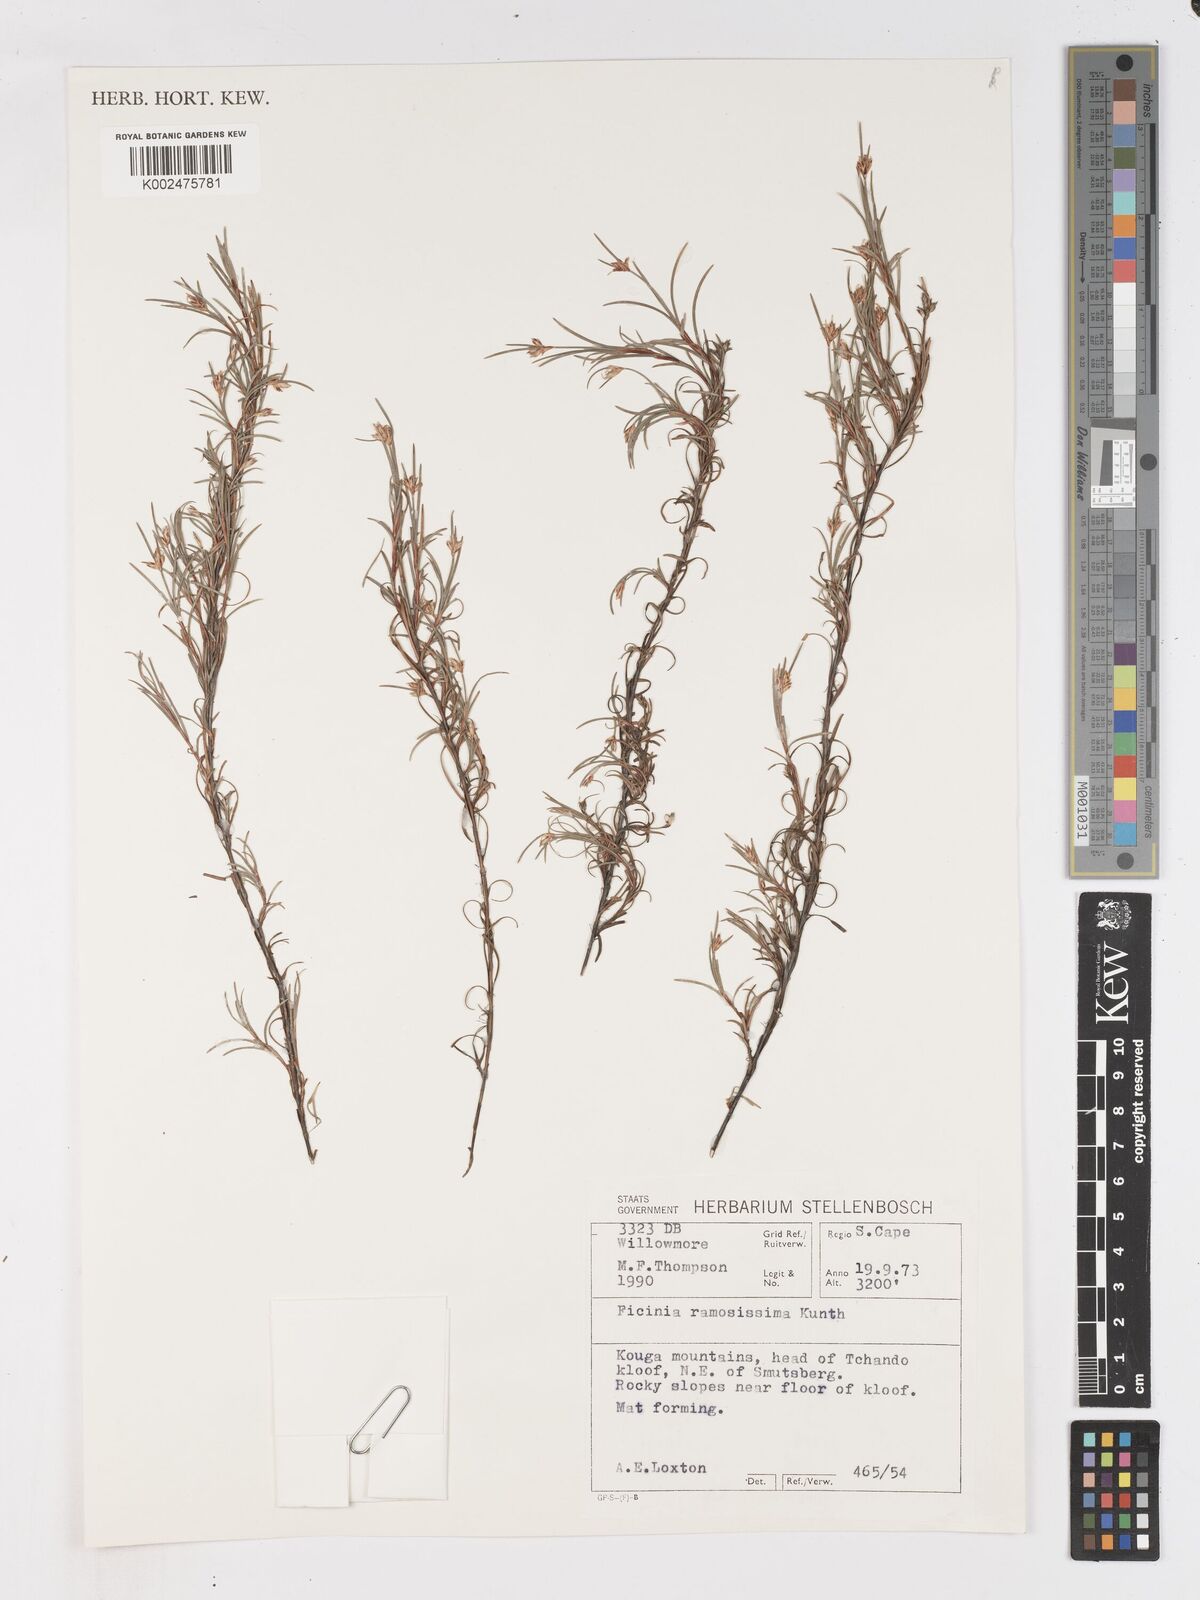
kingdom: Plantae
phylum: Tracheophyta
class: Liliopsida
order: Poales
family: Cyperaceae
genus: Ficinia
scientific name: Ficinia ramosissima
